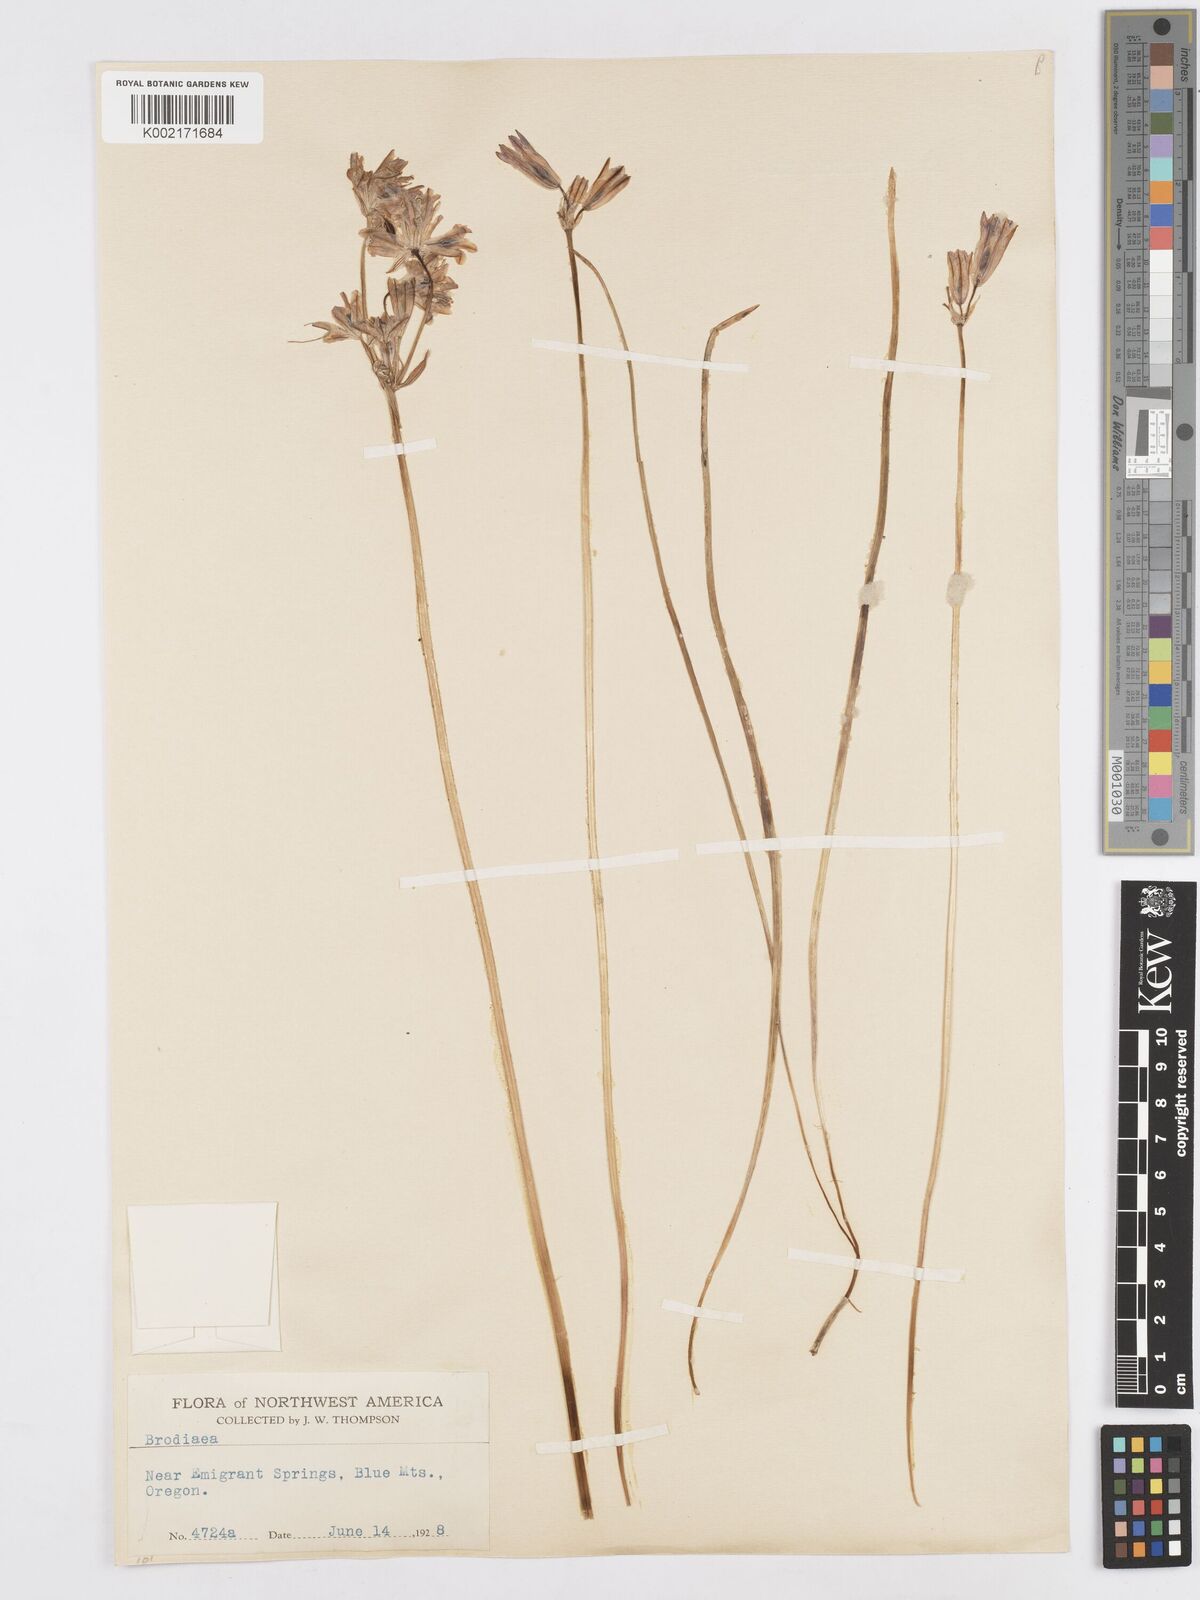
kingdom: Plantae
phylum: Tracheophyta
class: Liliopsida
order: Asparagales
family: Asparagaceae
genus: Triteleia
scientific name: Triteleia grandiflora
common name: Wild hyacinth
